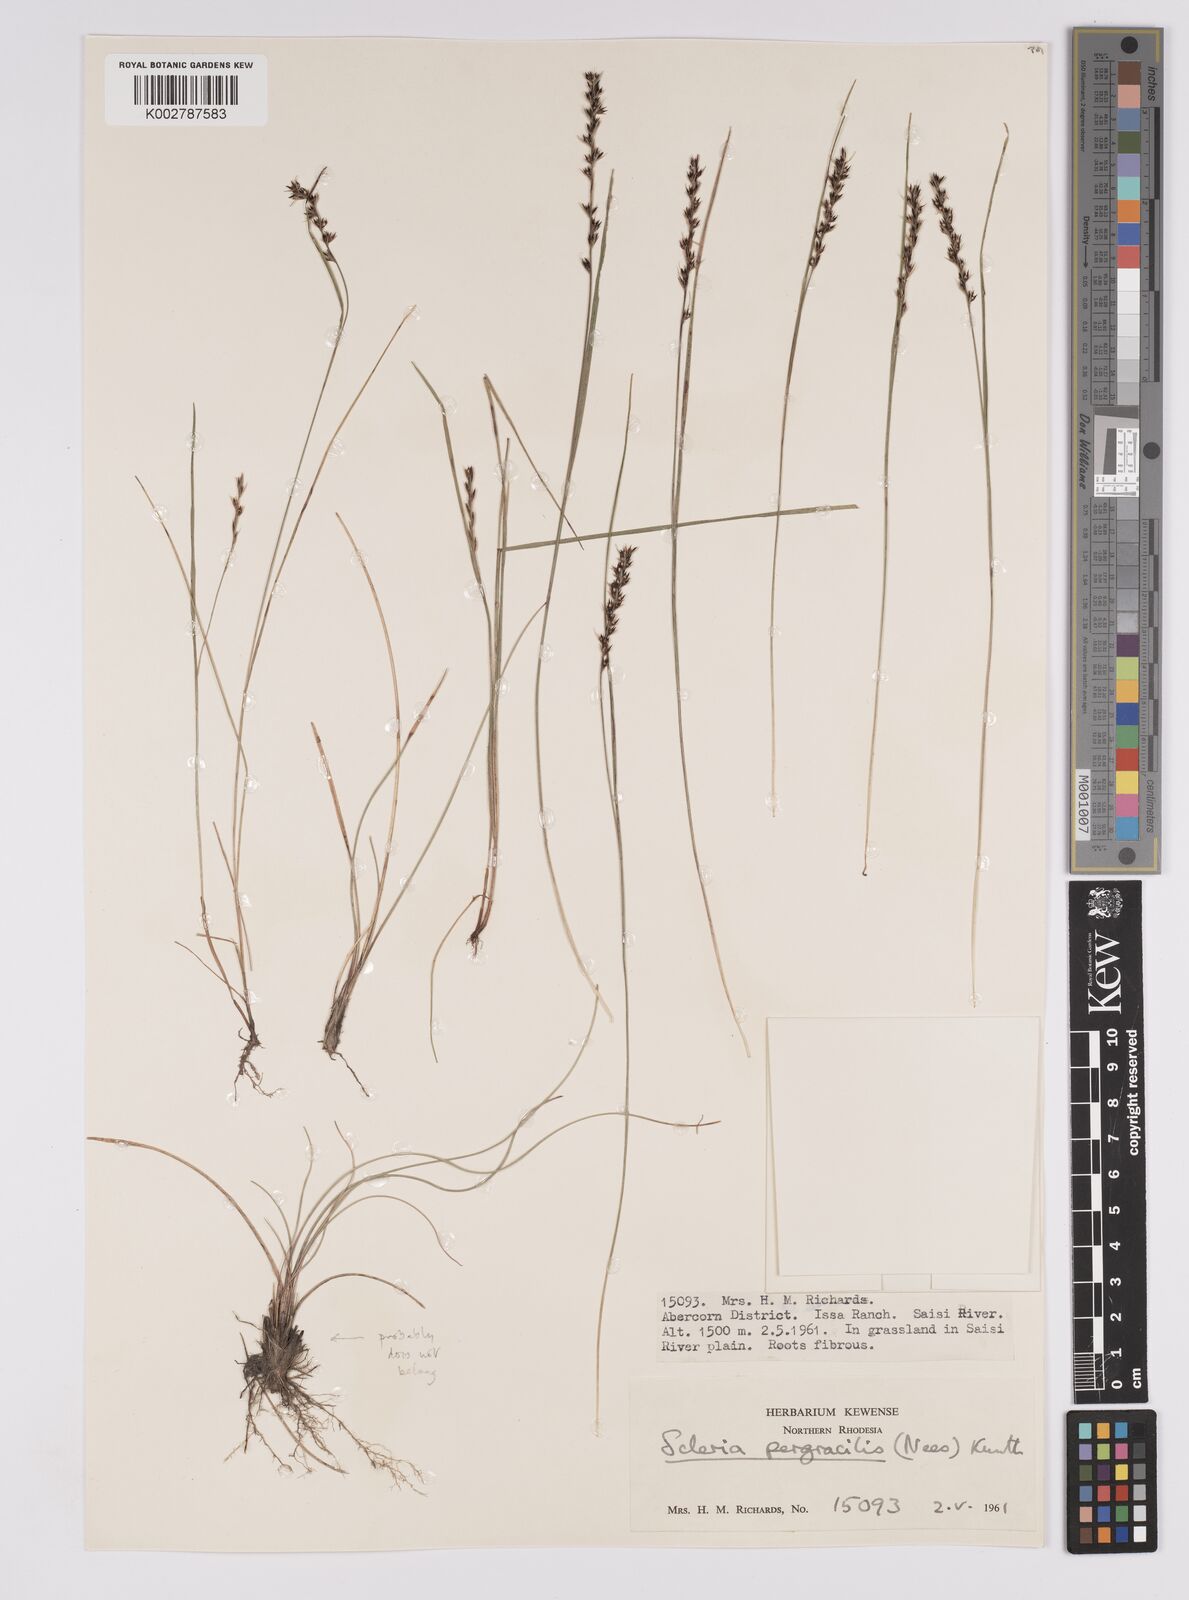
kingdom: Plantae
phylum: Tracheophyta
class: Liliopsida
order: Poales
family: Cyperaceae
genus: Scleria
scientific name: Scleria pergracilis
